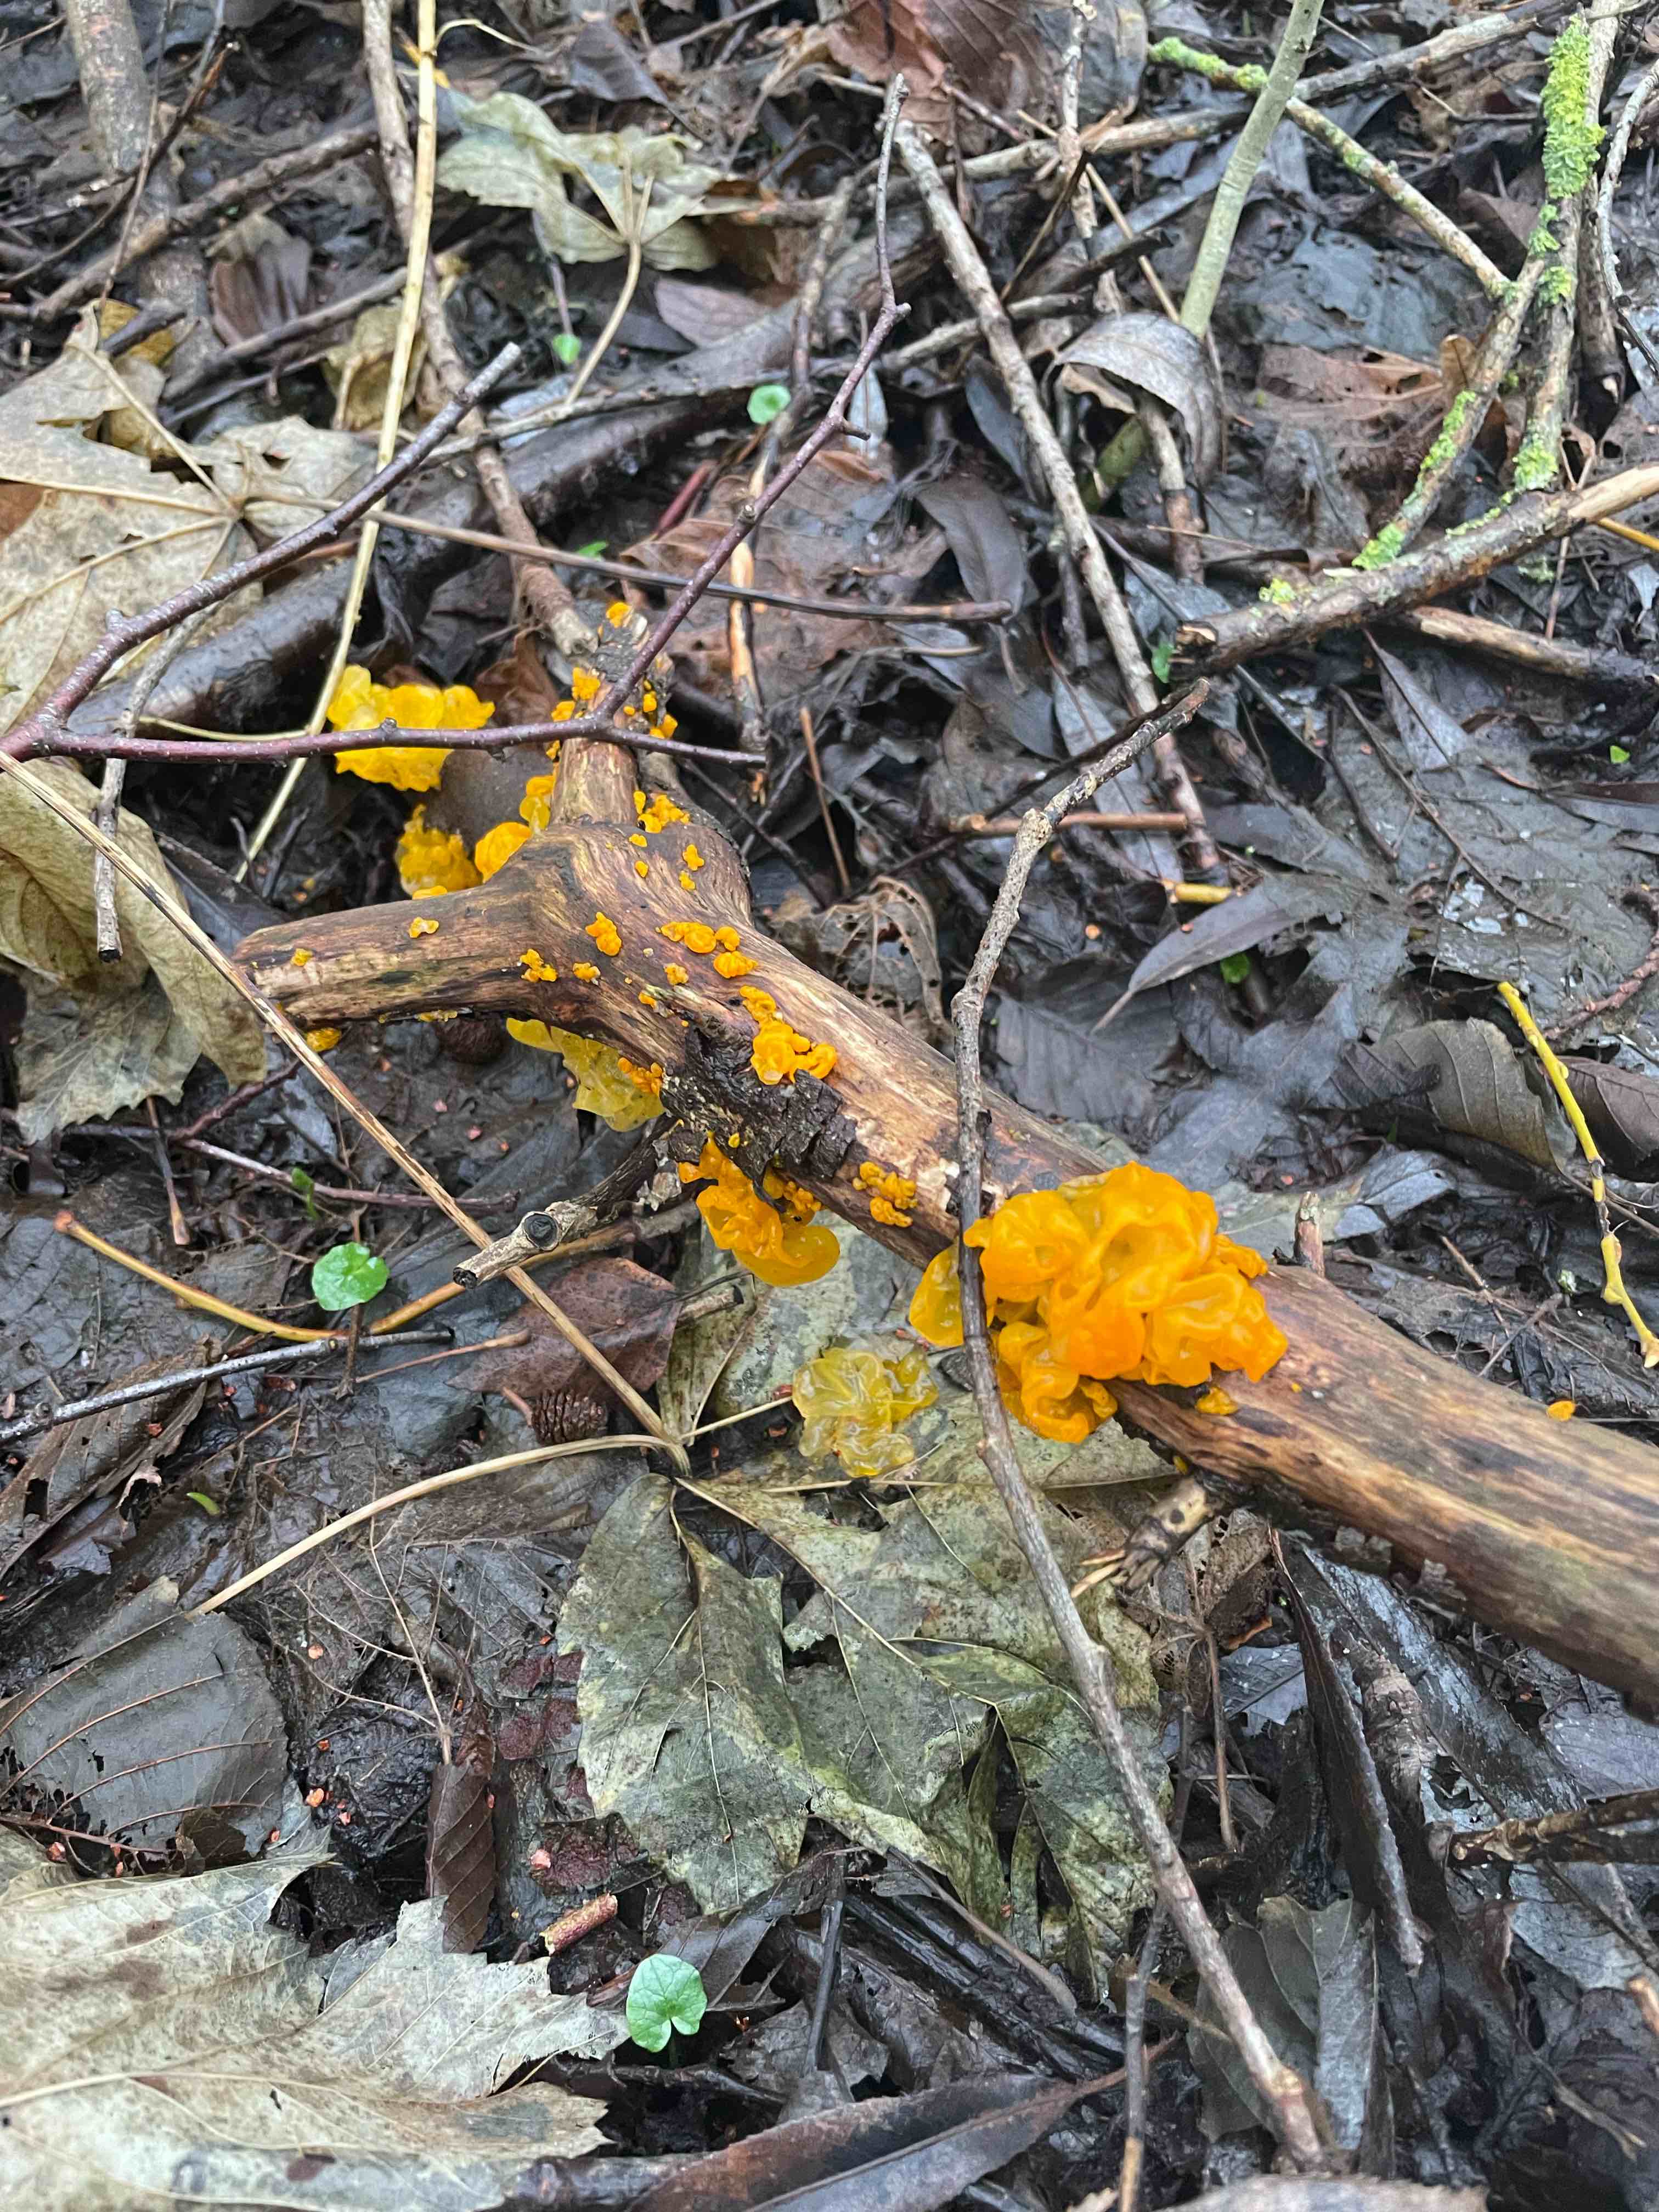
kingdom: Fungi
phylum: Basidiomycota
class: Tremellomycetes
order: Tremellales
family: Tremellaceae
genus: Tremella
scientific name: Tremella mesenterica
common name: gul bævresvamp
